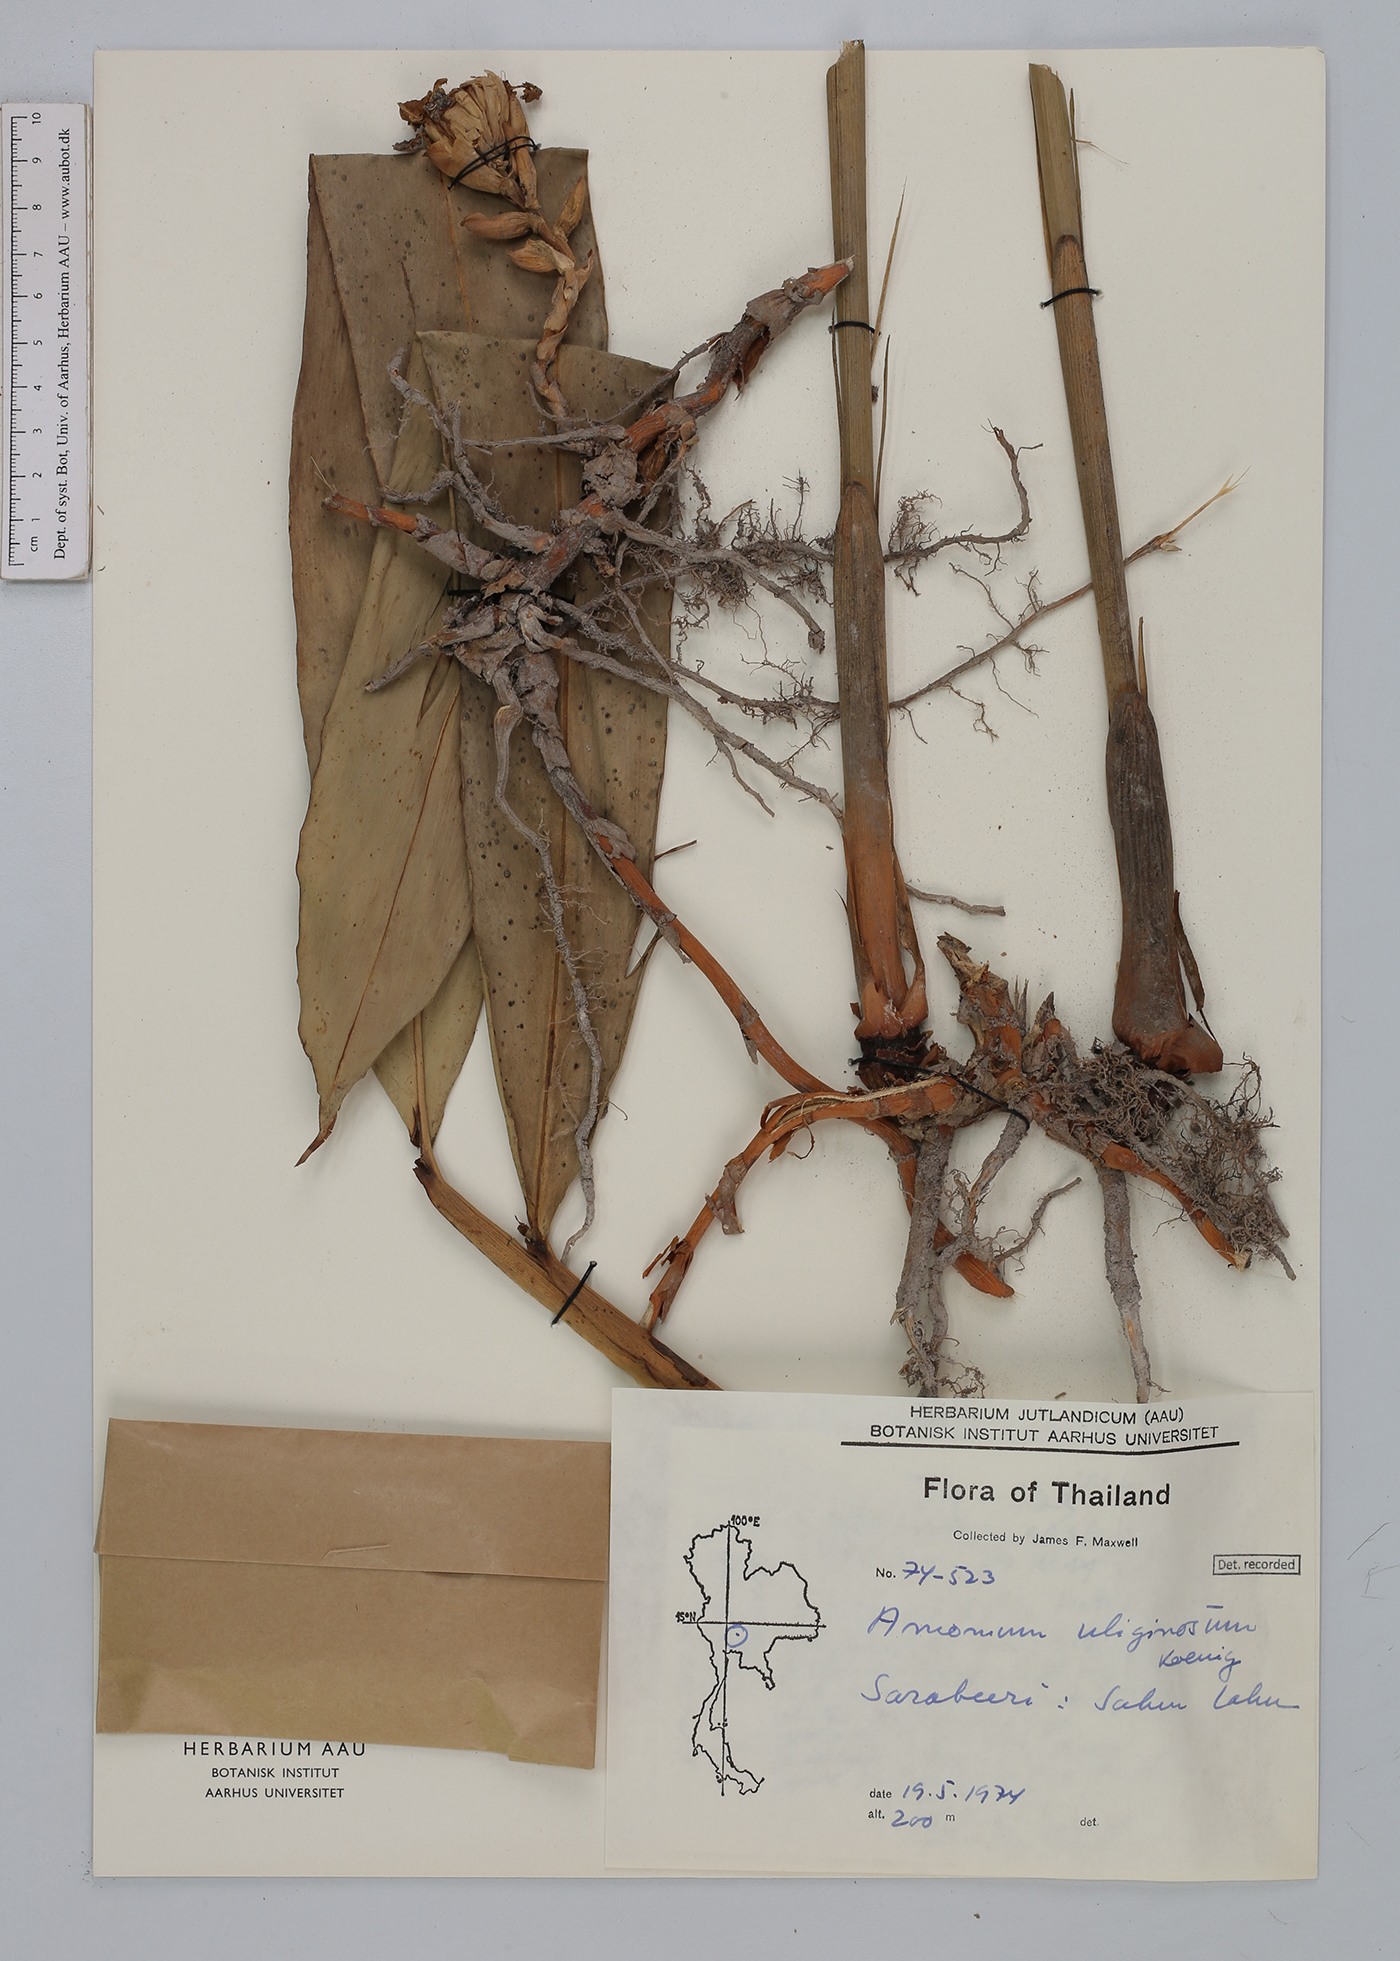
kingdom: Plantae
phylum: Tracheophyta
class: Liliopsida
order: Zingiberales
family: Zingiberaceae
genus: Wurfbainia
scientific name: Wurfbainia uliginosa
